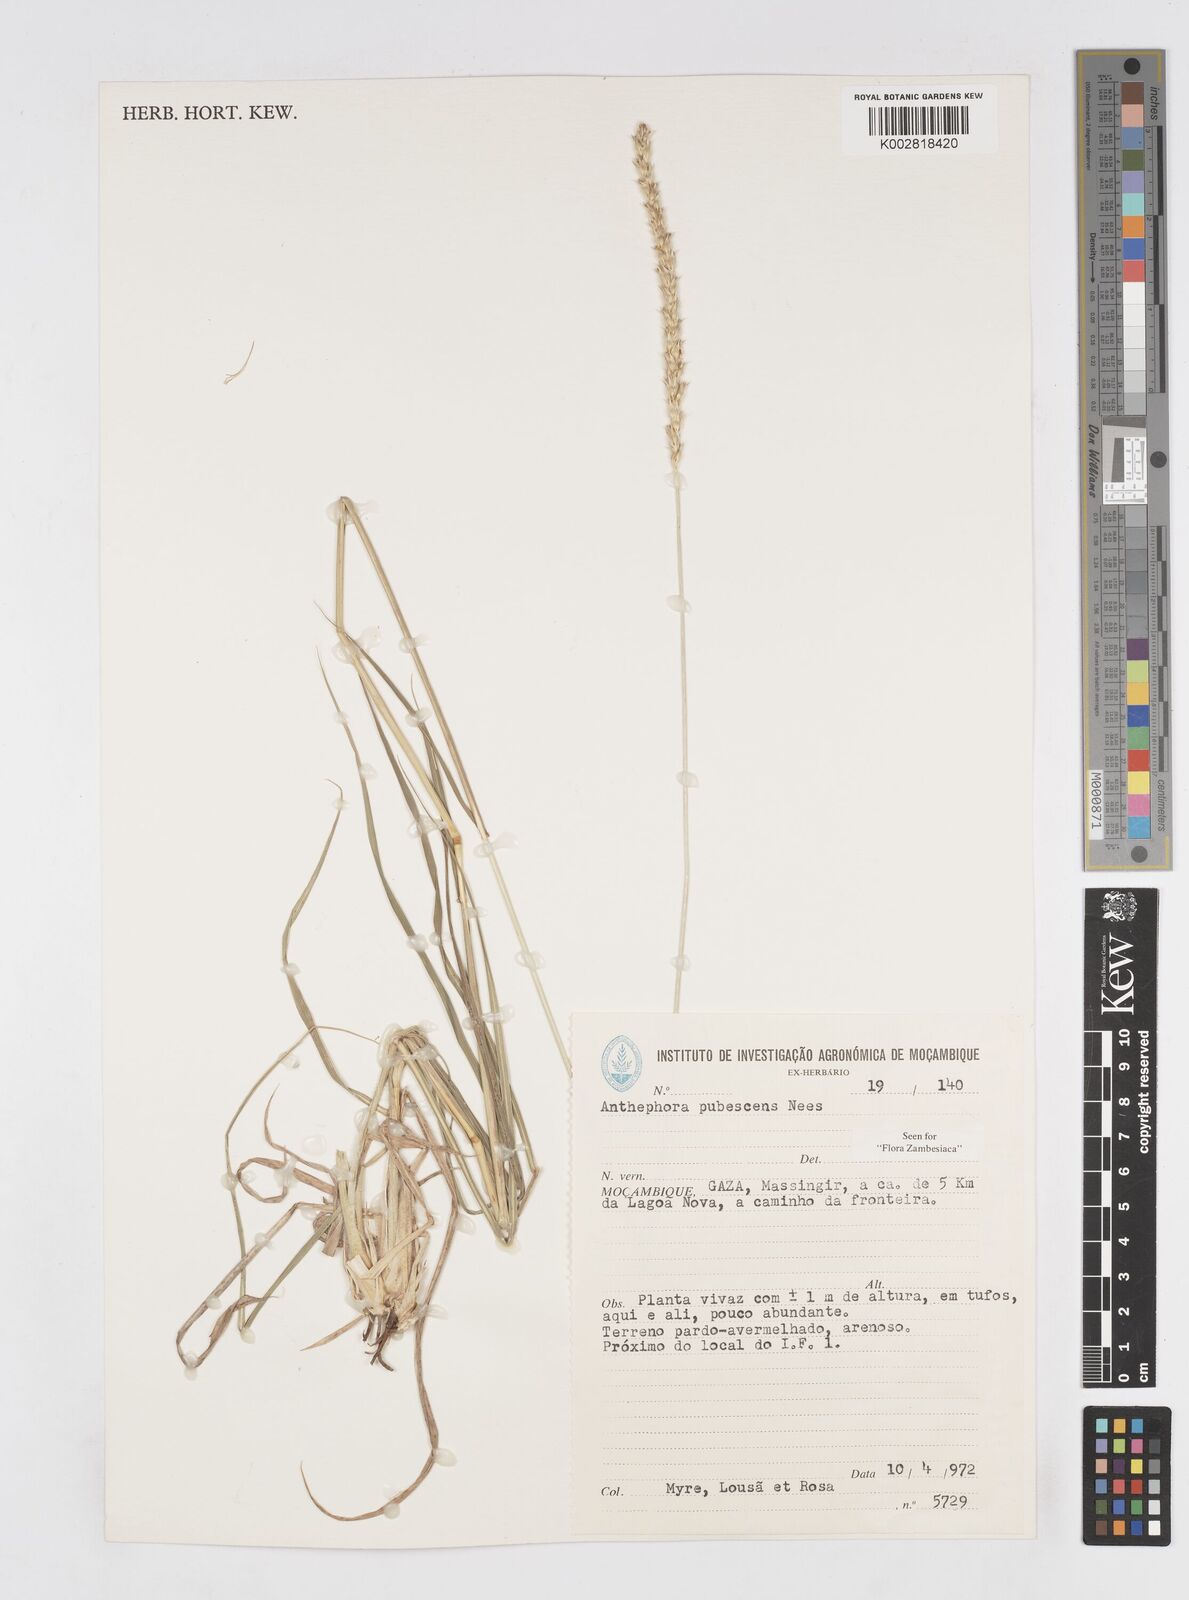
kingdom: Plantae
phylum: Tracheophyta
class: Liliopsida
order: Poales
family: Poaceae
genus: Anthephora
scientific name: Anthephora pubescens
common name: Wool grass
